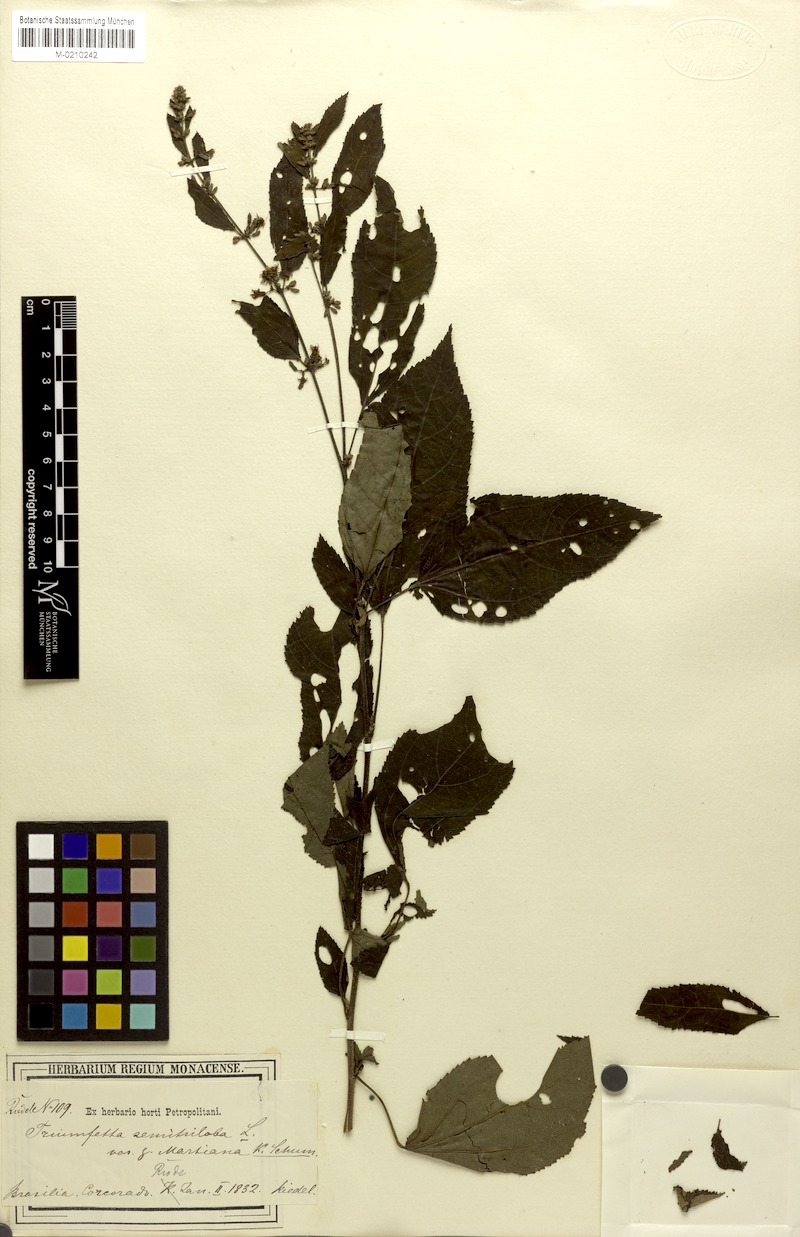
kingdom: Plantae
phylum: Tracheophyta
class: Magnoliopsida
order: Malvales
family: Malvaceae
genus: Triumfetta
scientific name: Triumfetta semitriloba
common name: Sacramento burbark
